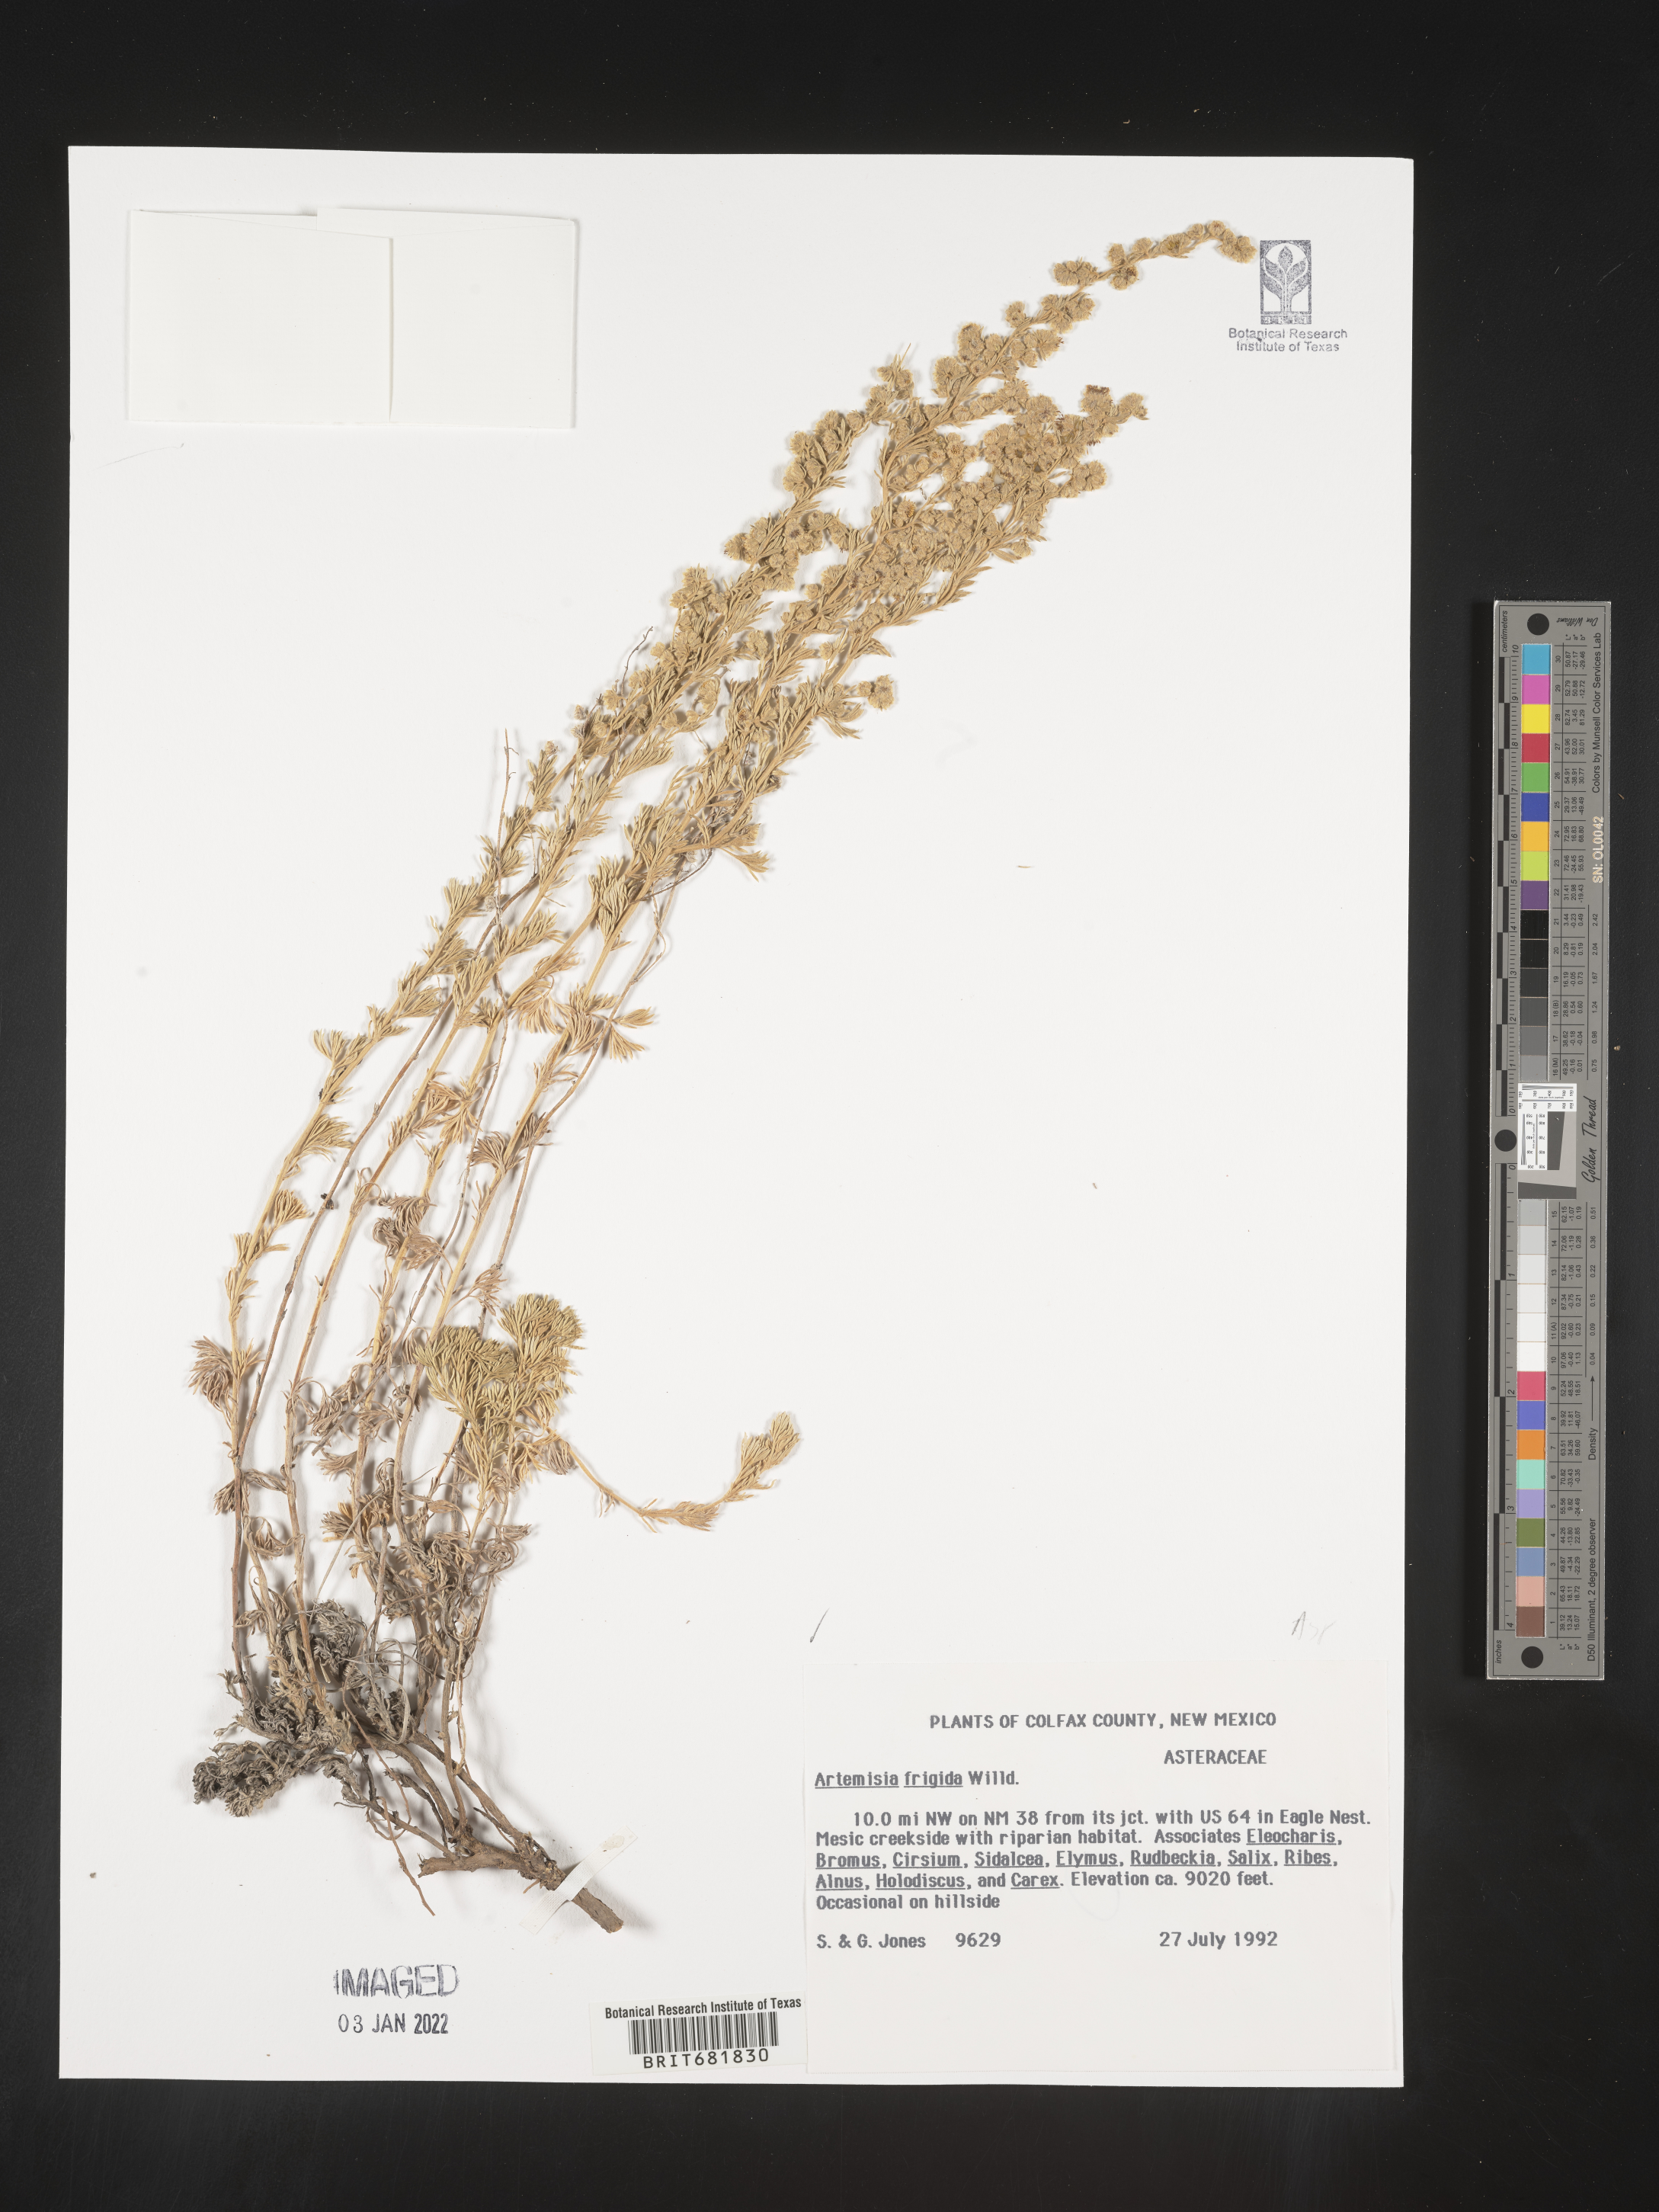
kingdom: Plantae
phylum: Tracheophyta
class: Magnoliopsida
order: Asterales
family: Asteraceae
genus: Artemisia
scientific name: Artemisia frigida
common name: Prairie sagewort
